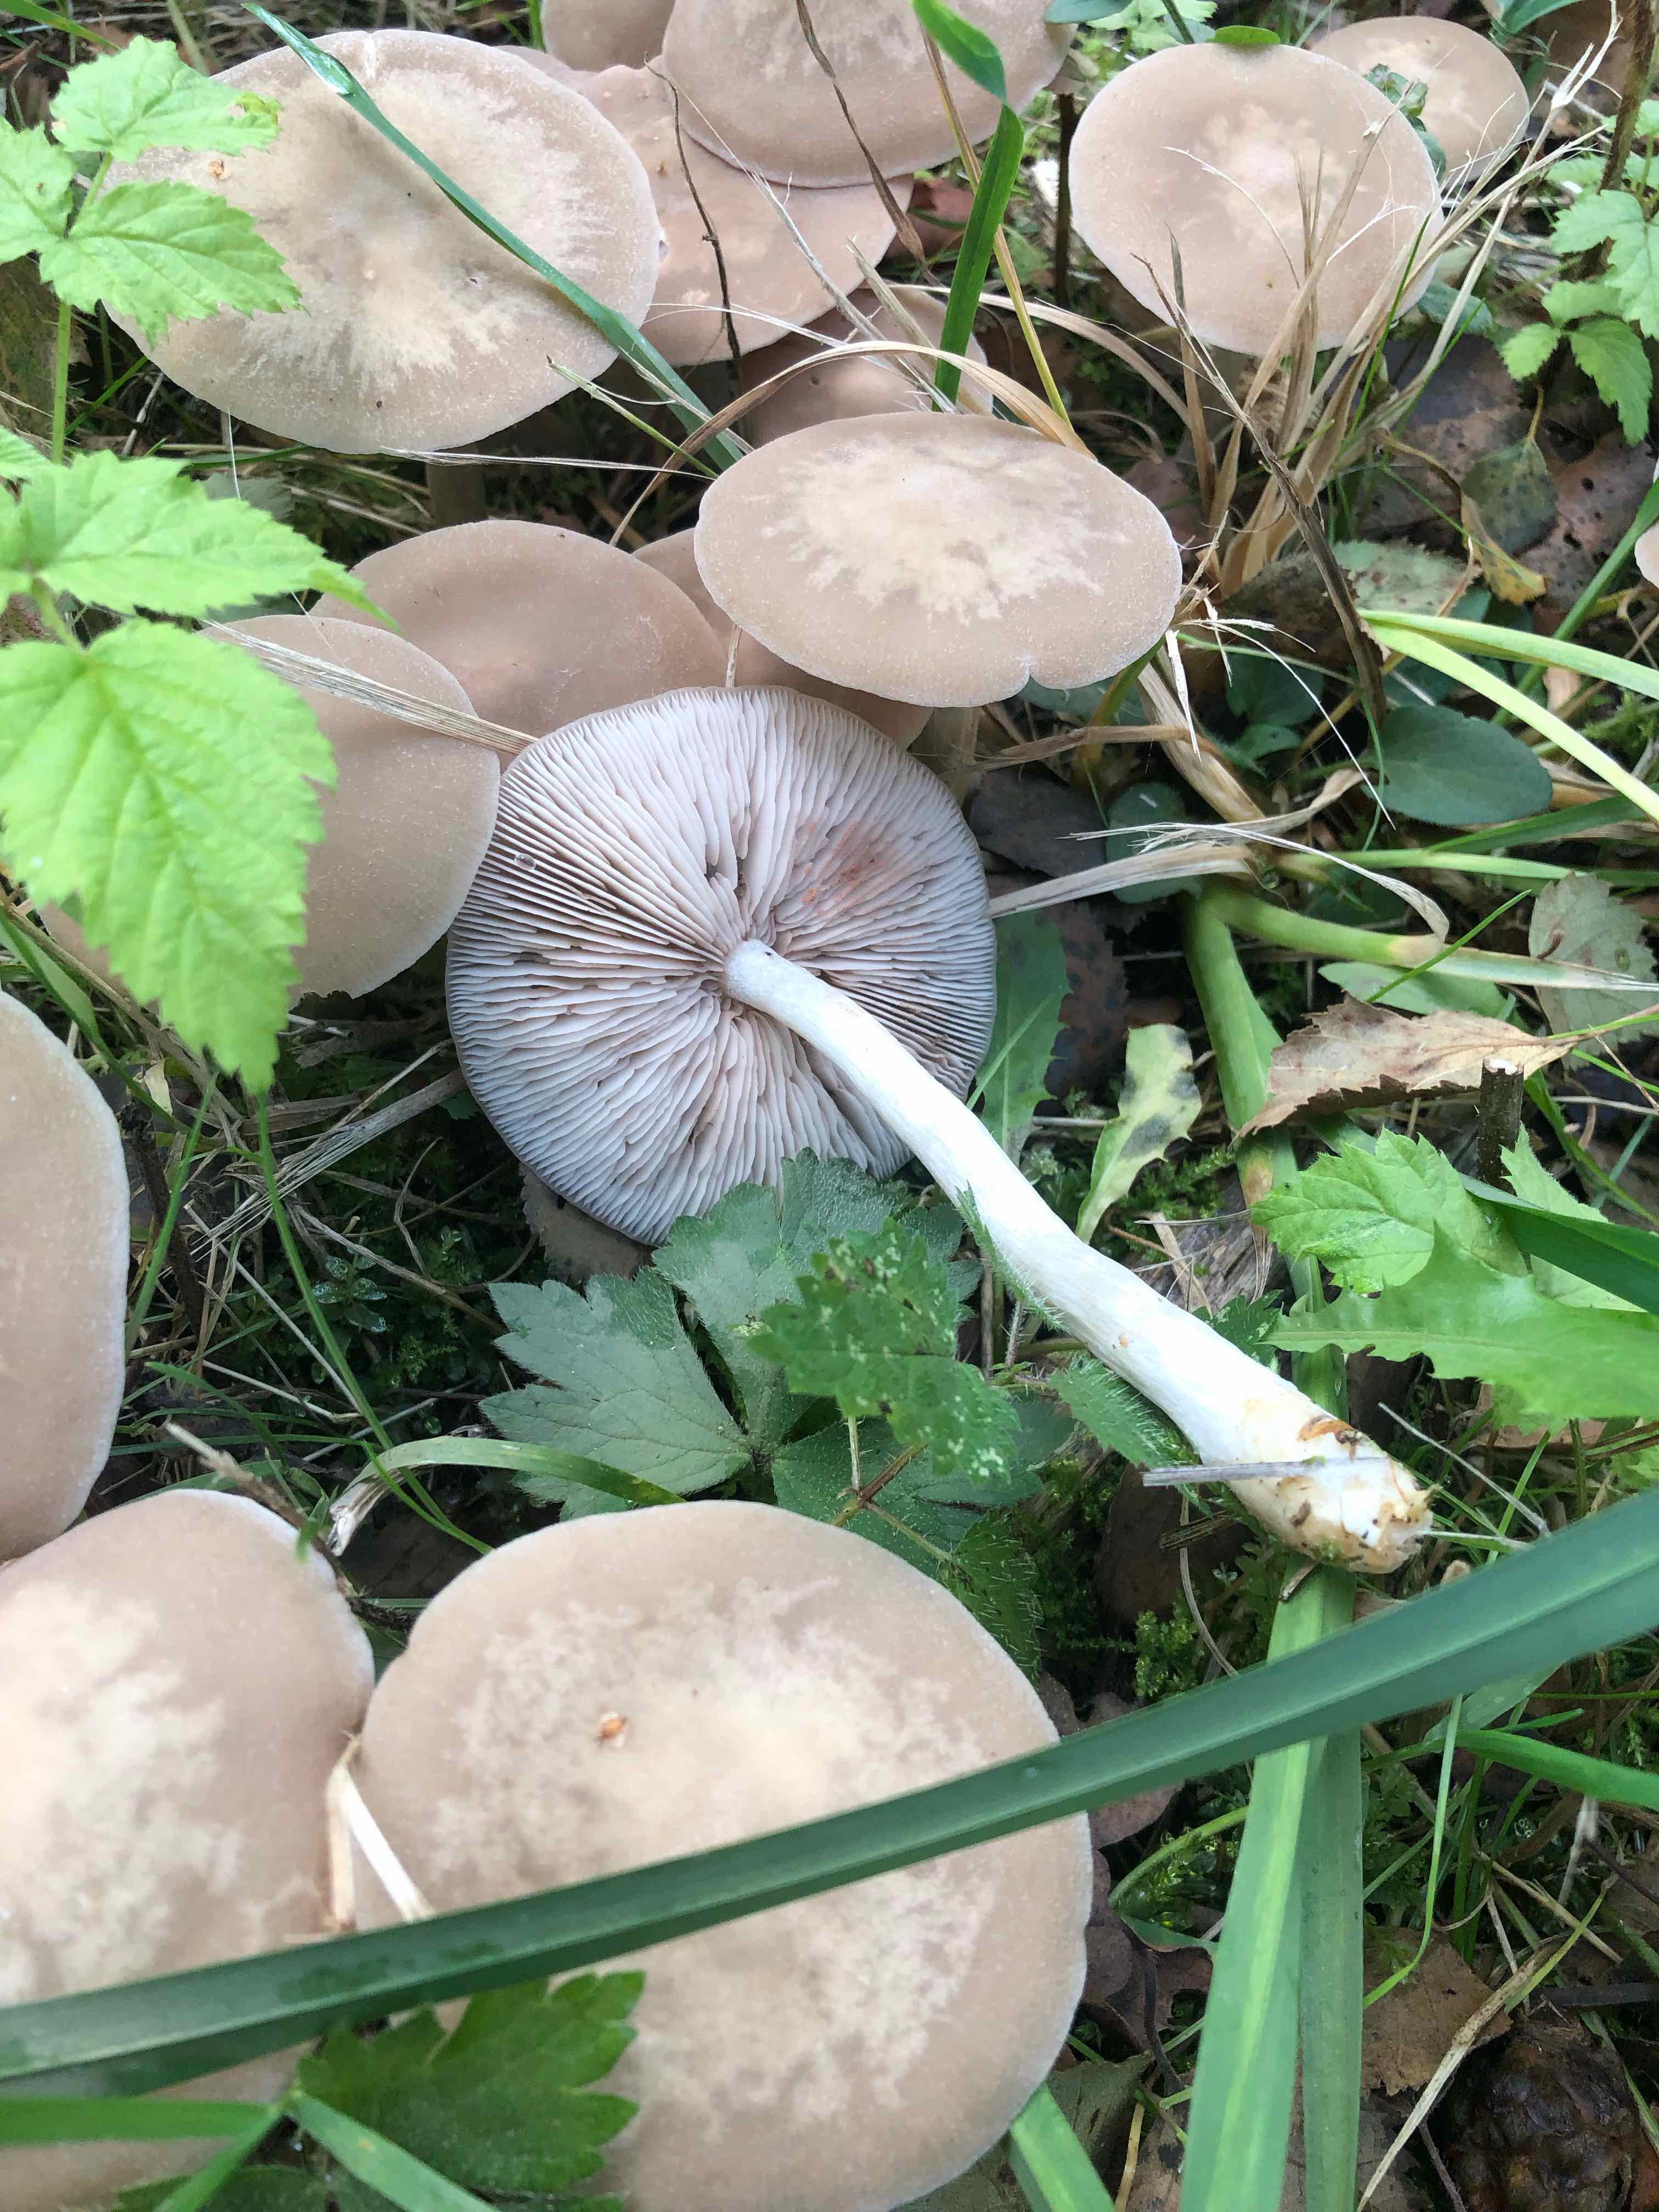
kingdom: Fungi
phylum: Basidiomycota
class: Agaricomycetes
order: Agaricales
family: Entolomataceae
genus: Entoloma
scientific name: Entoloma rhodopolium
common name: skov-rødblad
